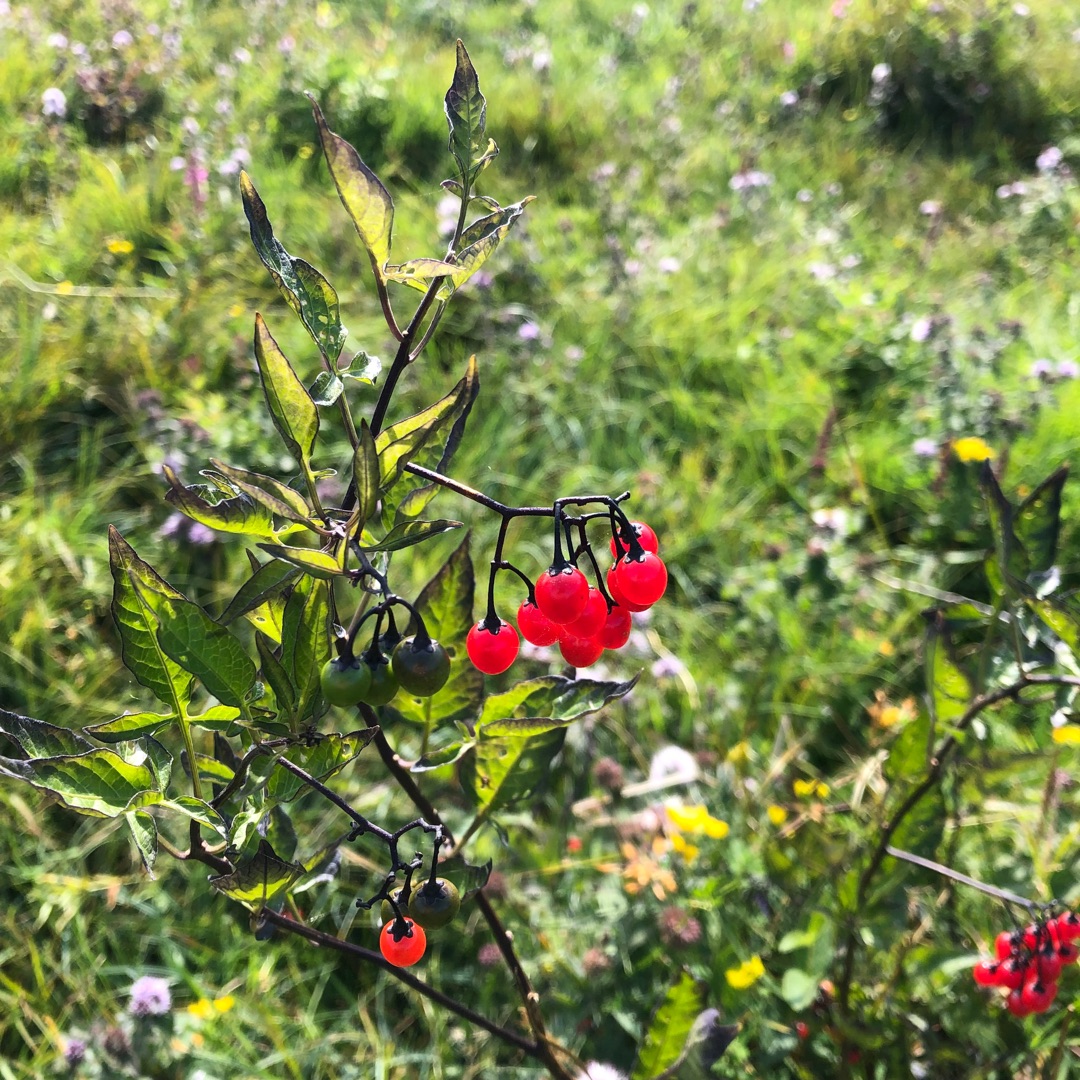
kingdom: Plantae
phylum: Tracheophyta
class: Magnoliopsida
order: Solanales
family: Solanaceae
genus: Solanum
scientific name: Solanum dulcamara
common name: Bittersød natskygge
